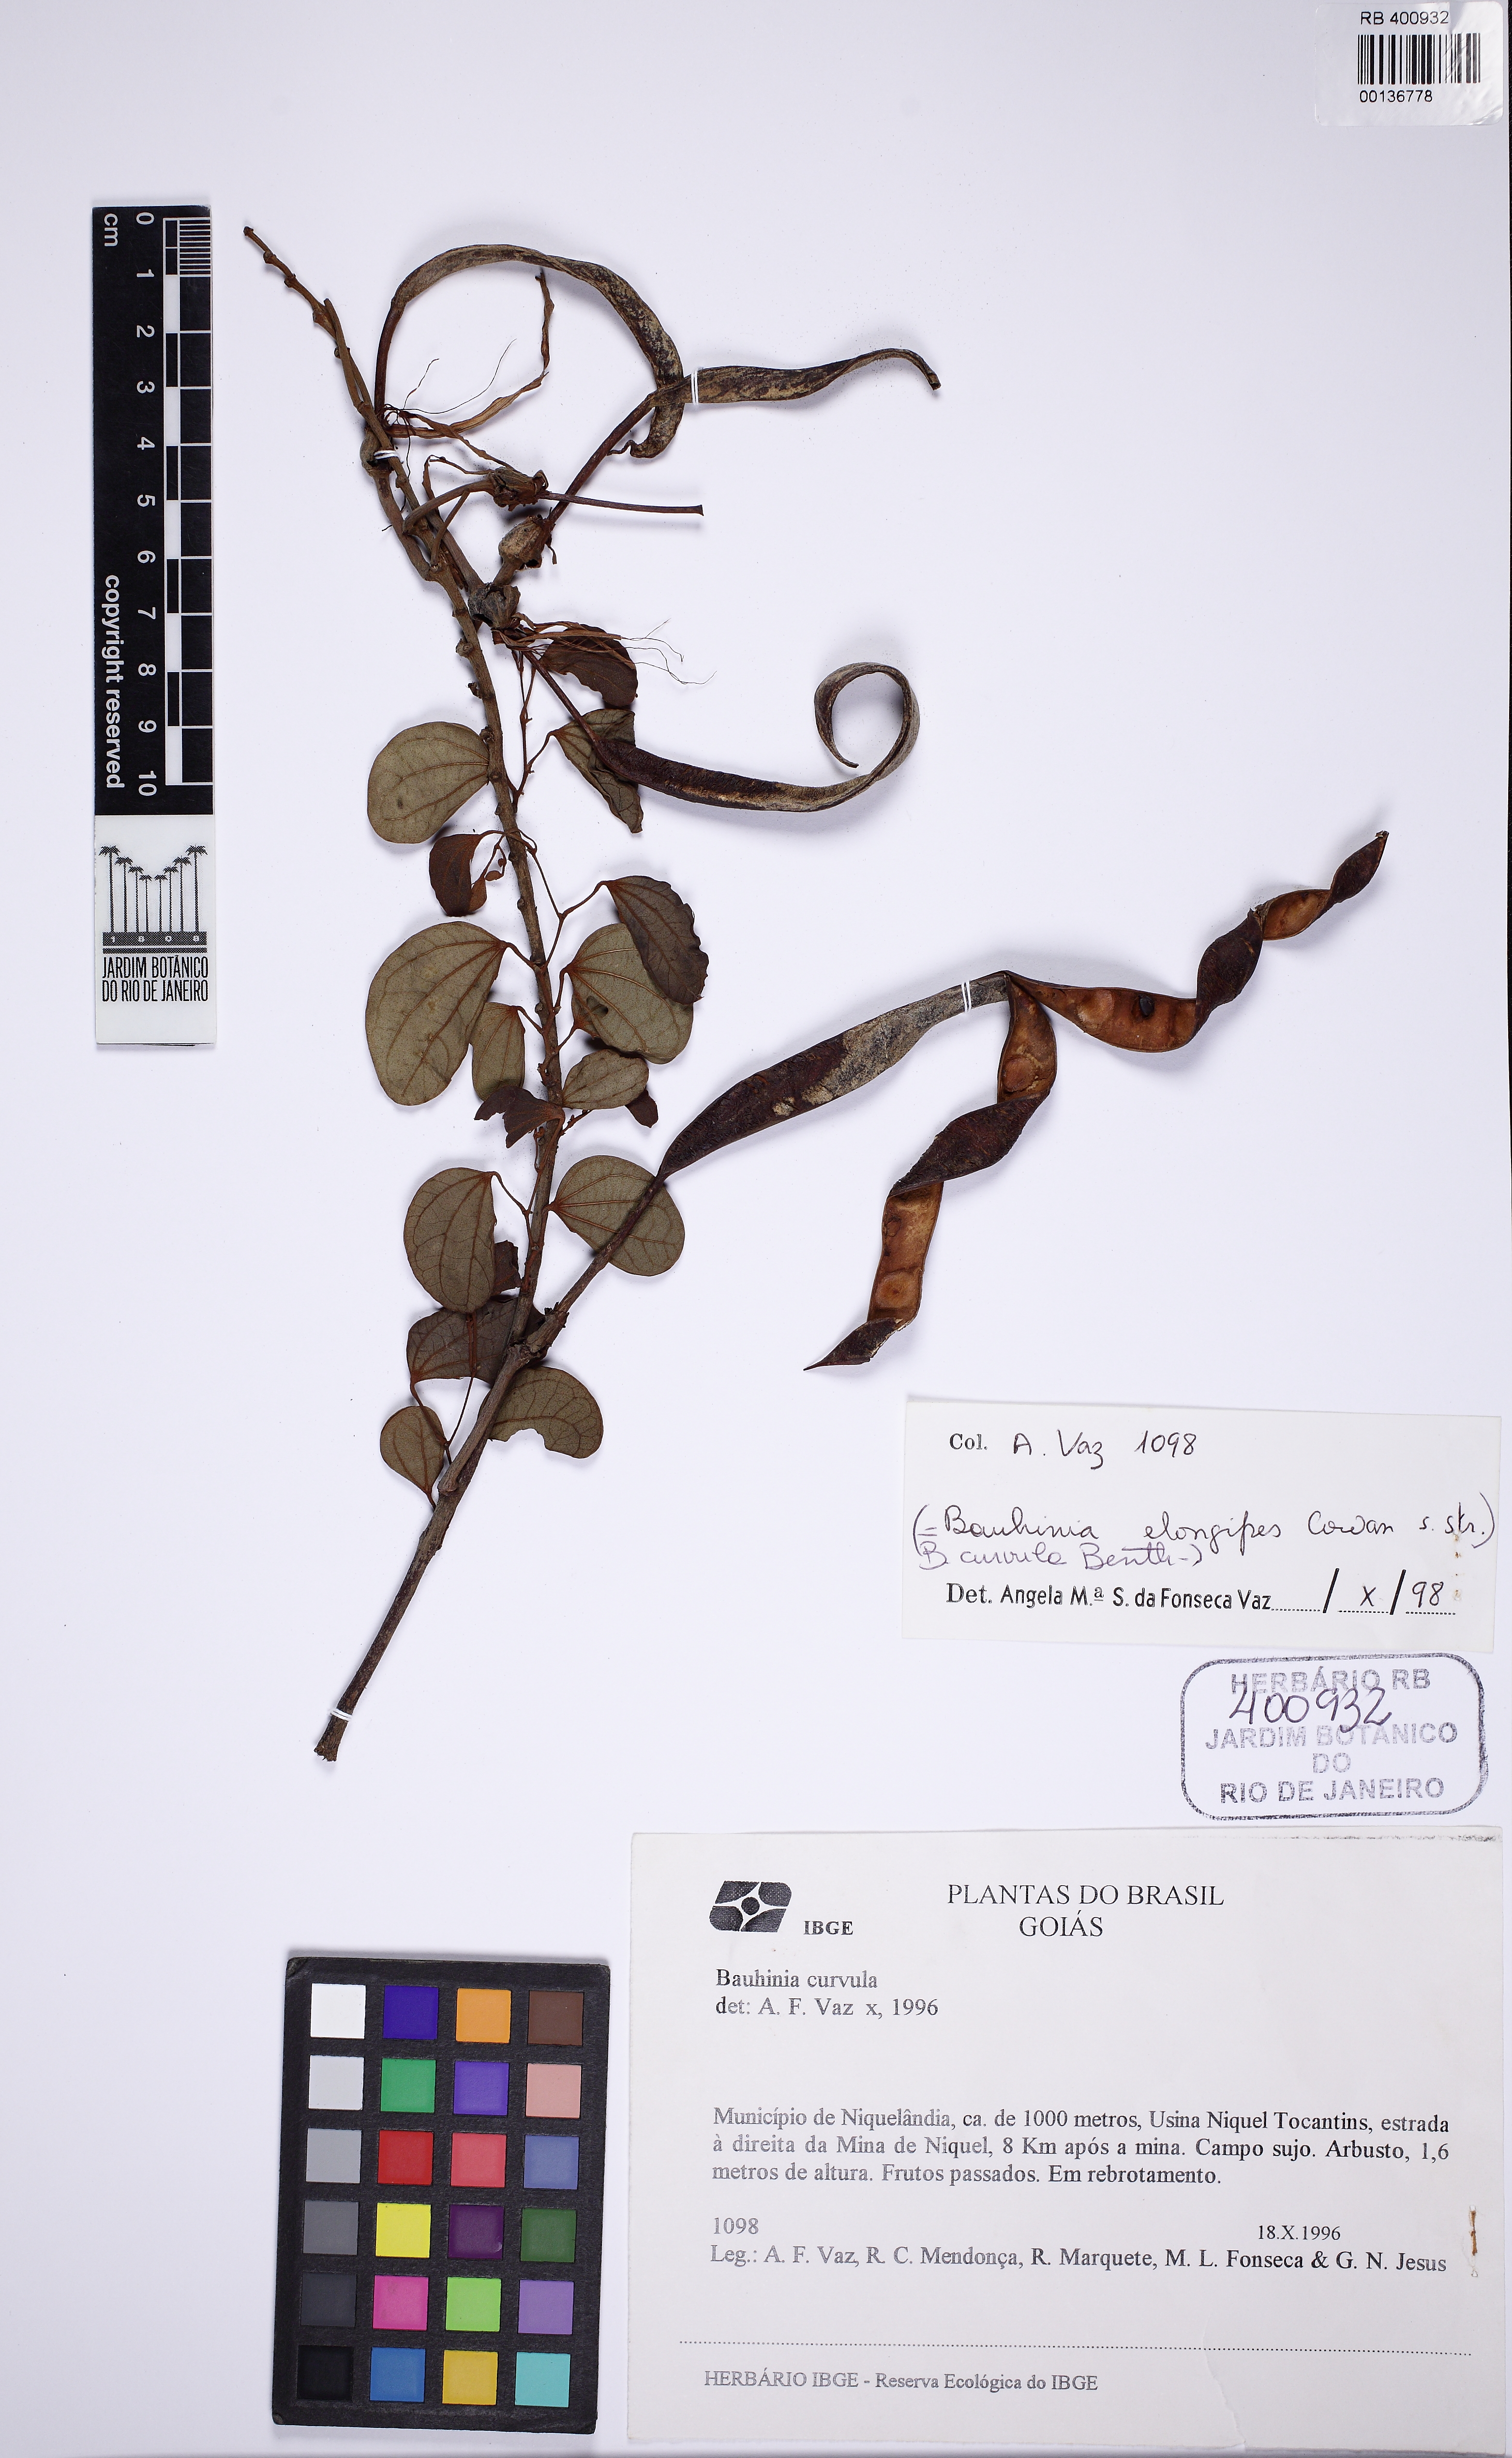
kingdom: Plantae
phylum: Tracheophyta
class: Magnoliopsida
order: Fabales
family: Fabaceae
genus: Bauhinia
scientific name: Bauhinia curvula
